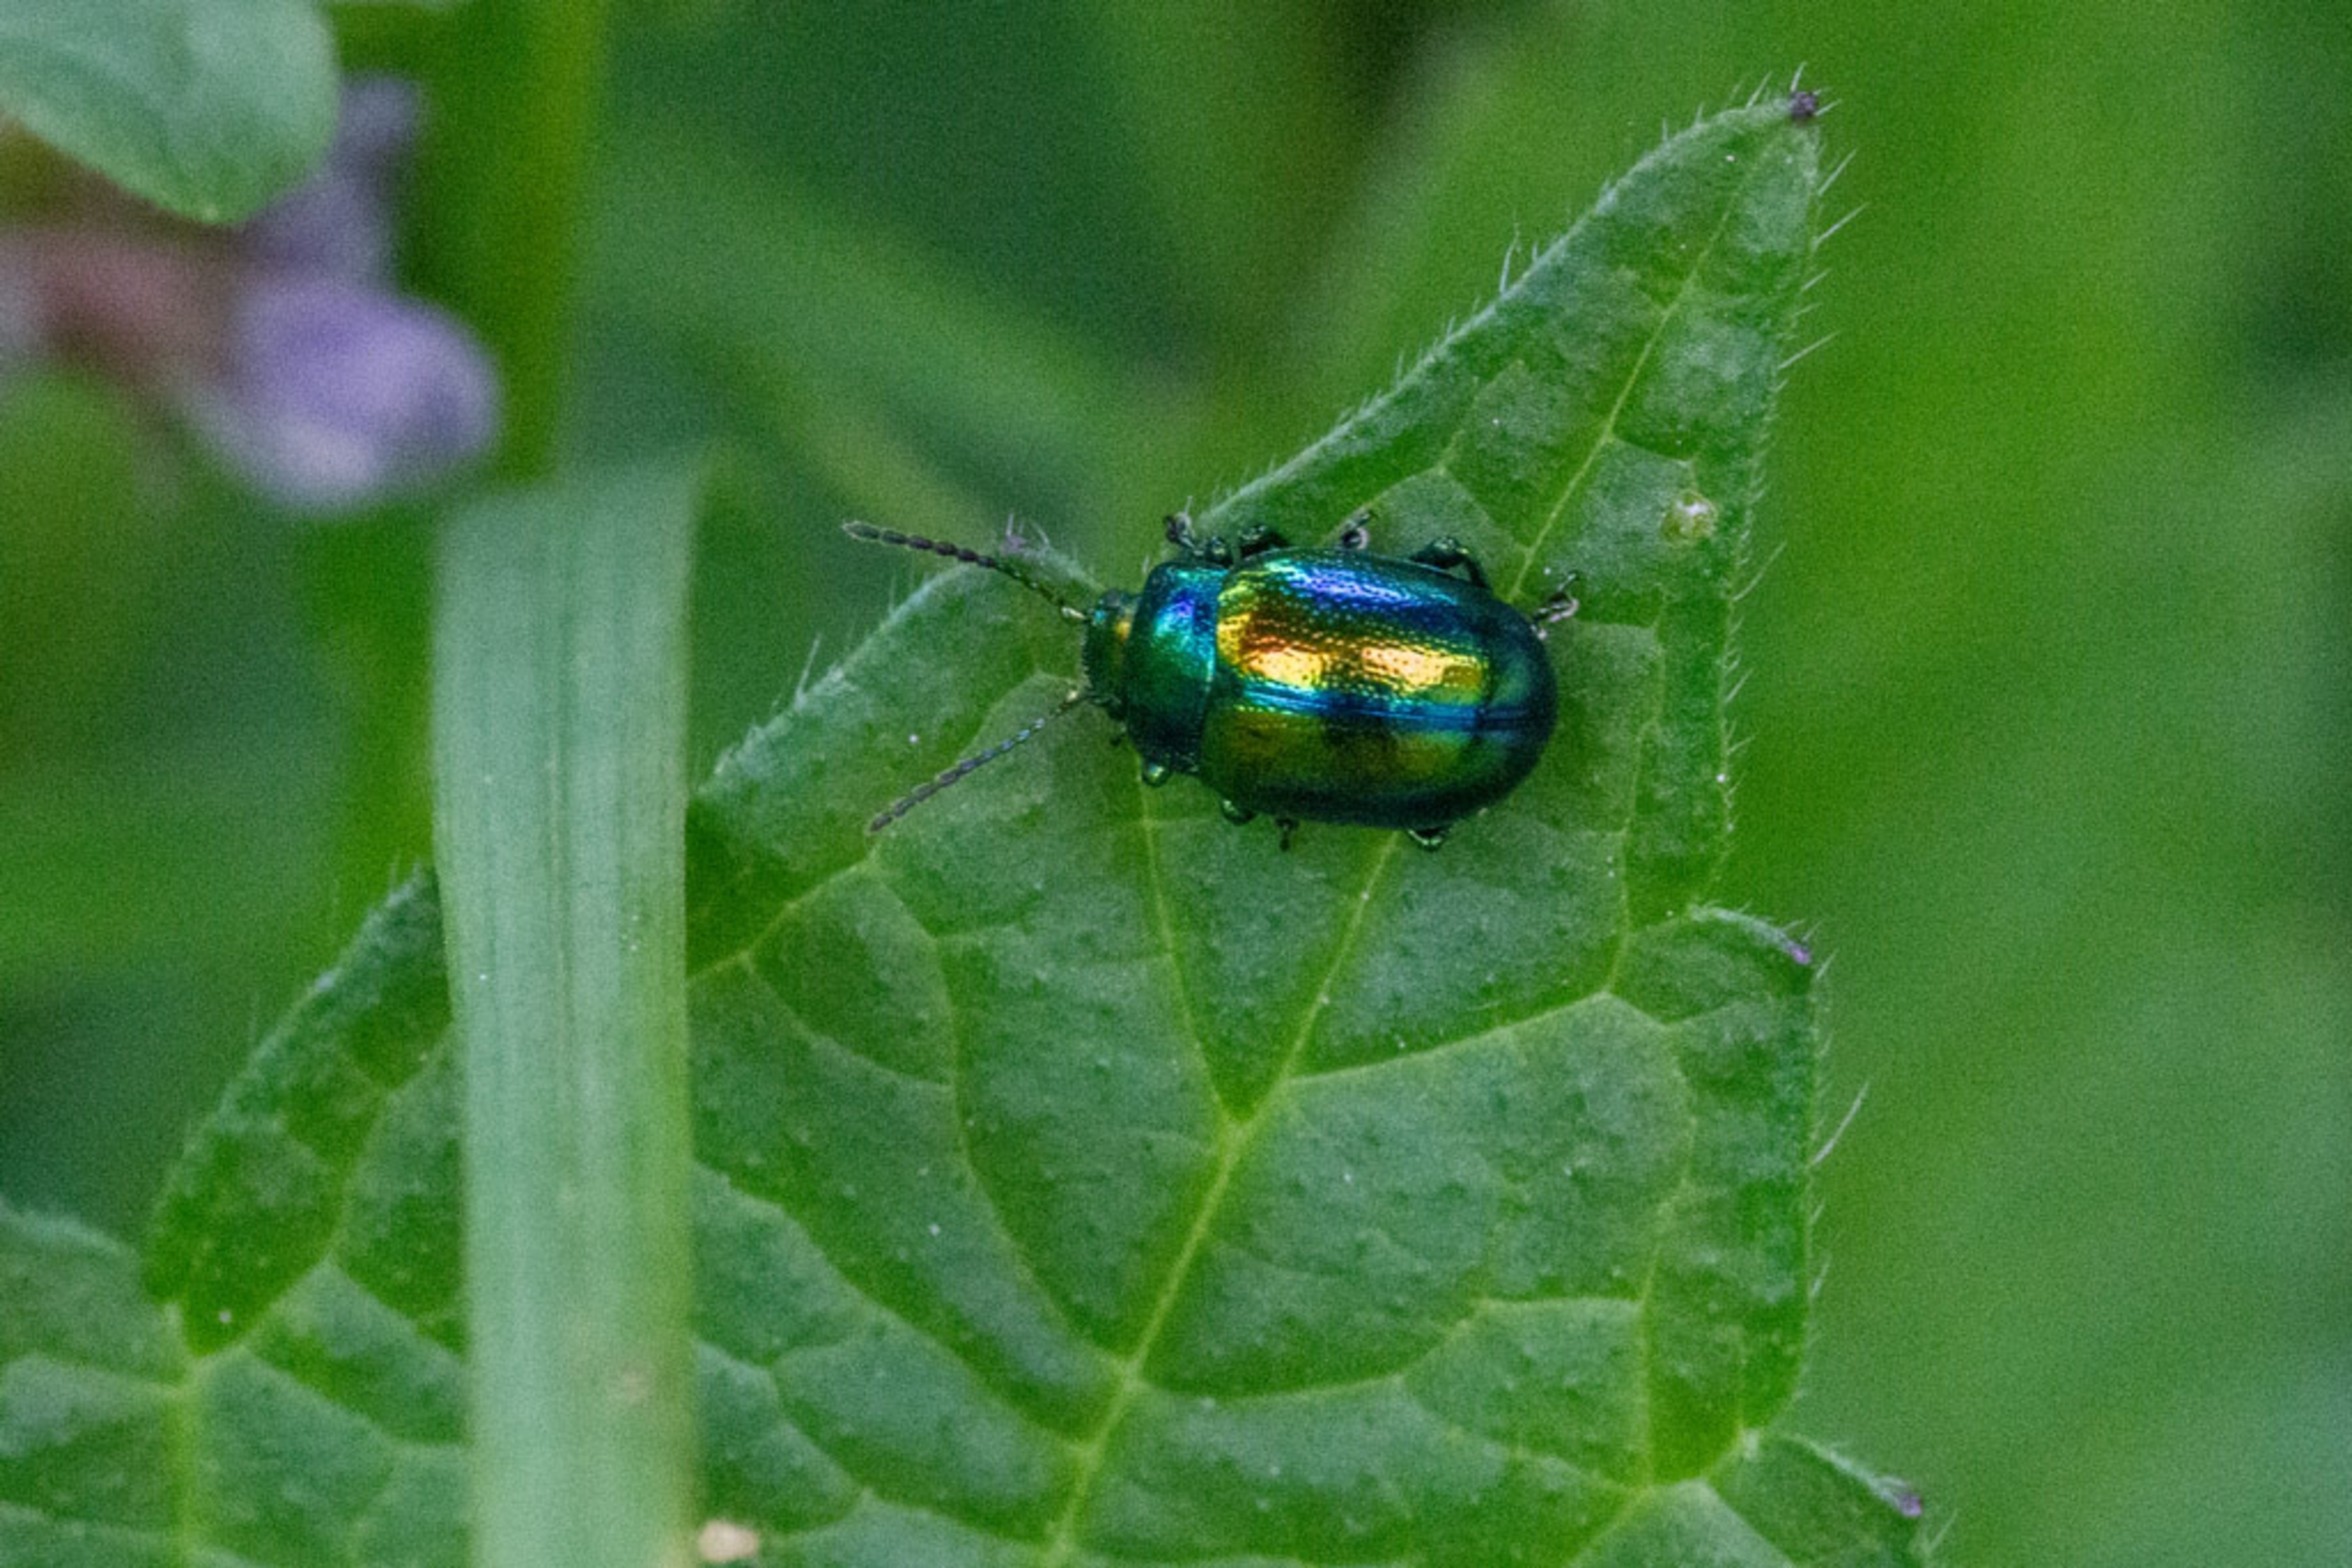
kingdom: Animalia
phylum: Arthropoda
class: Insecta
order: Coleoptera
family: Chrysomelidae
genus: Chrysolina
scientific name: Chrysolina fastuosa
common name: Tvetandbladbille
